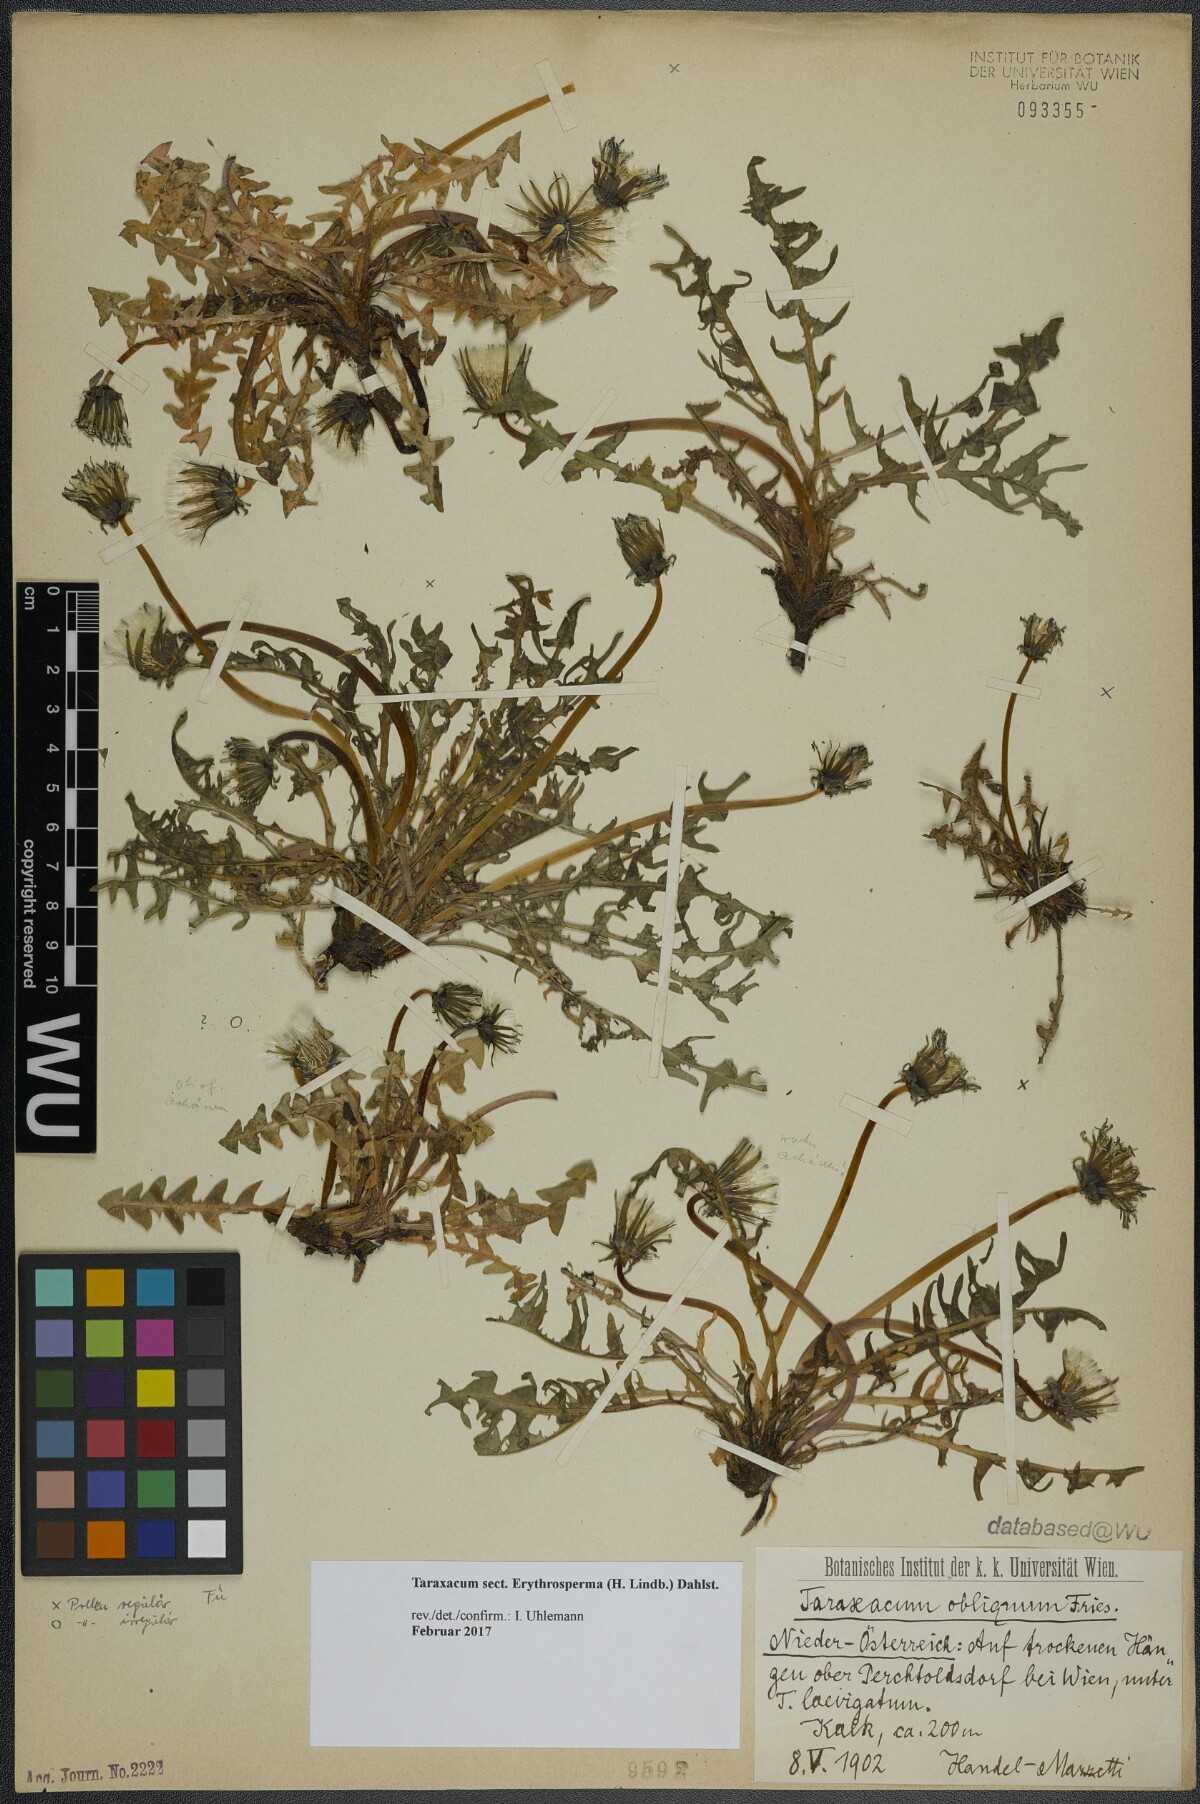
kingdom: Plantae
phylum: Tracheophyta
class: Magnoliopsida
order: Asterales
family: Asteraceae
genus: Taraxacum
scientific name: Taraxacum
